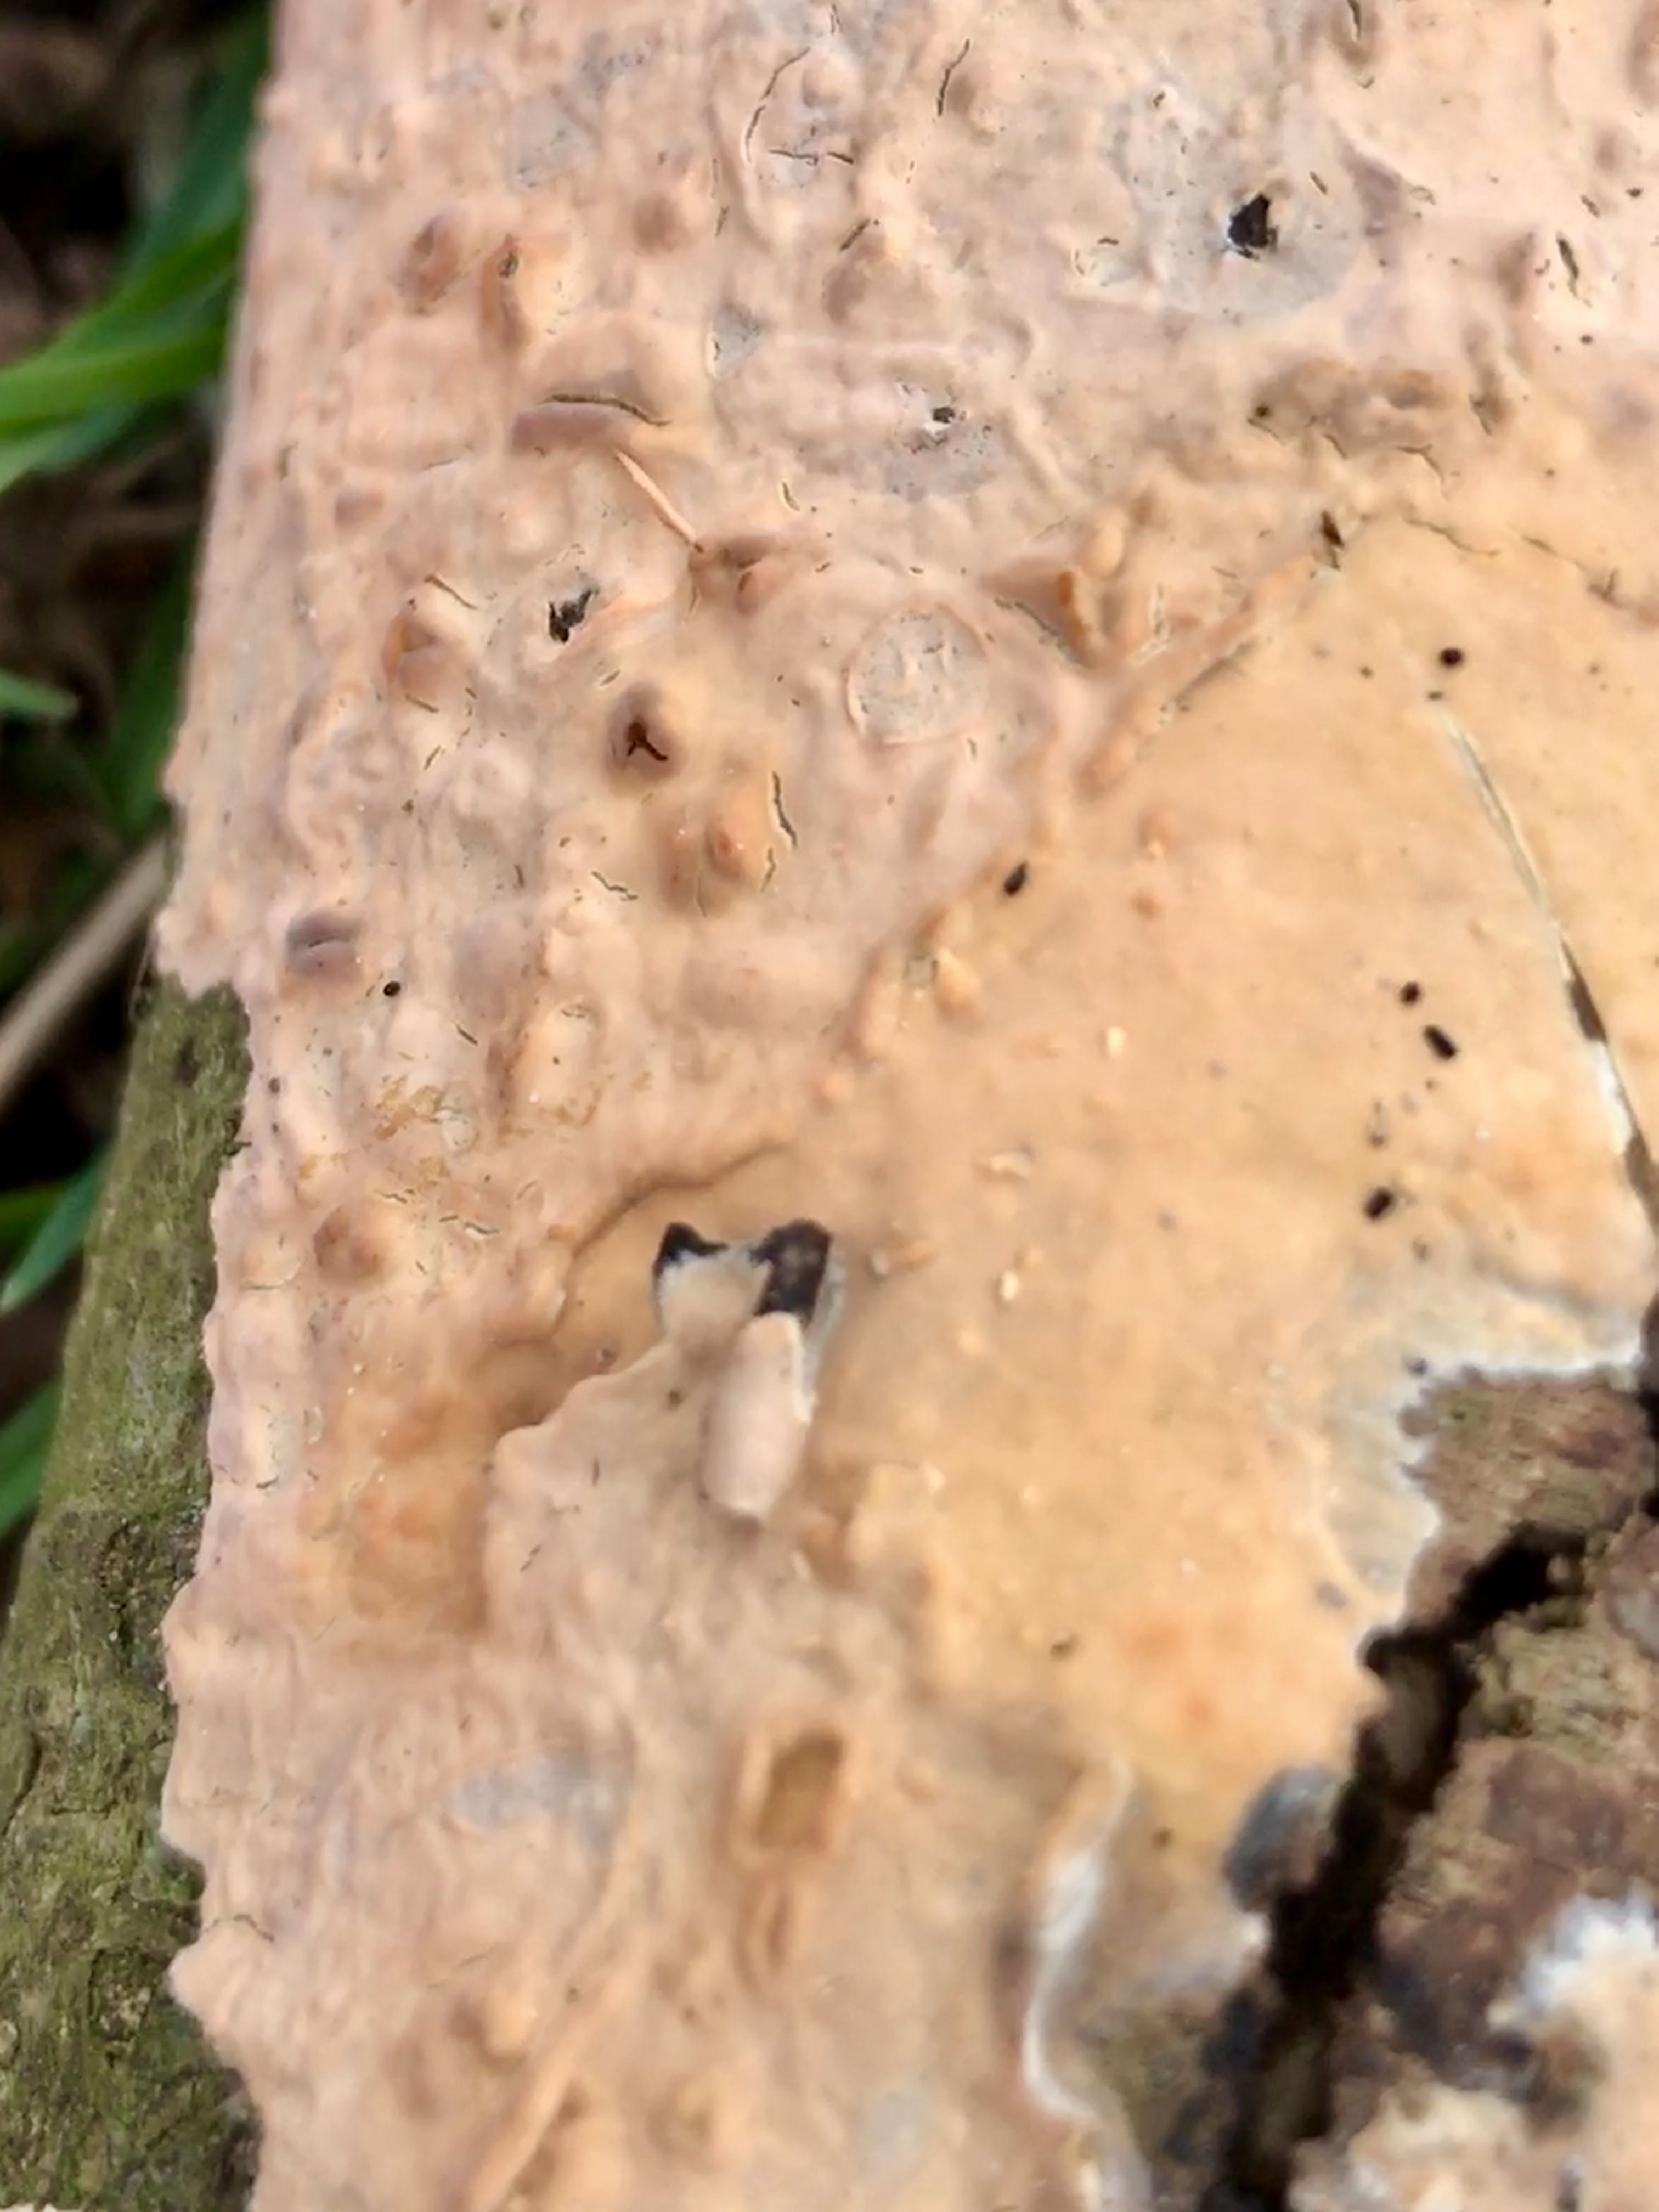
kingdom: Fungi
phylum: Basidiomycota
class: Agaricomycetes
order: Russulales
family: Peniophoraceae
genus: Peniophora
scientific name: Peniophora incarnata
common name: laksefarvet voksskind
